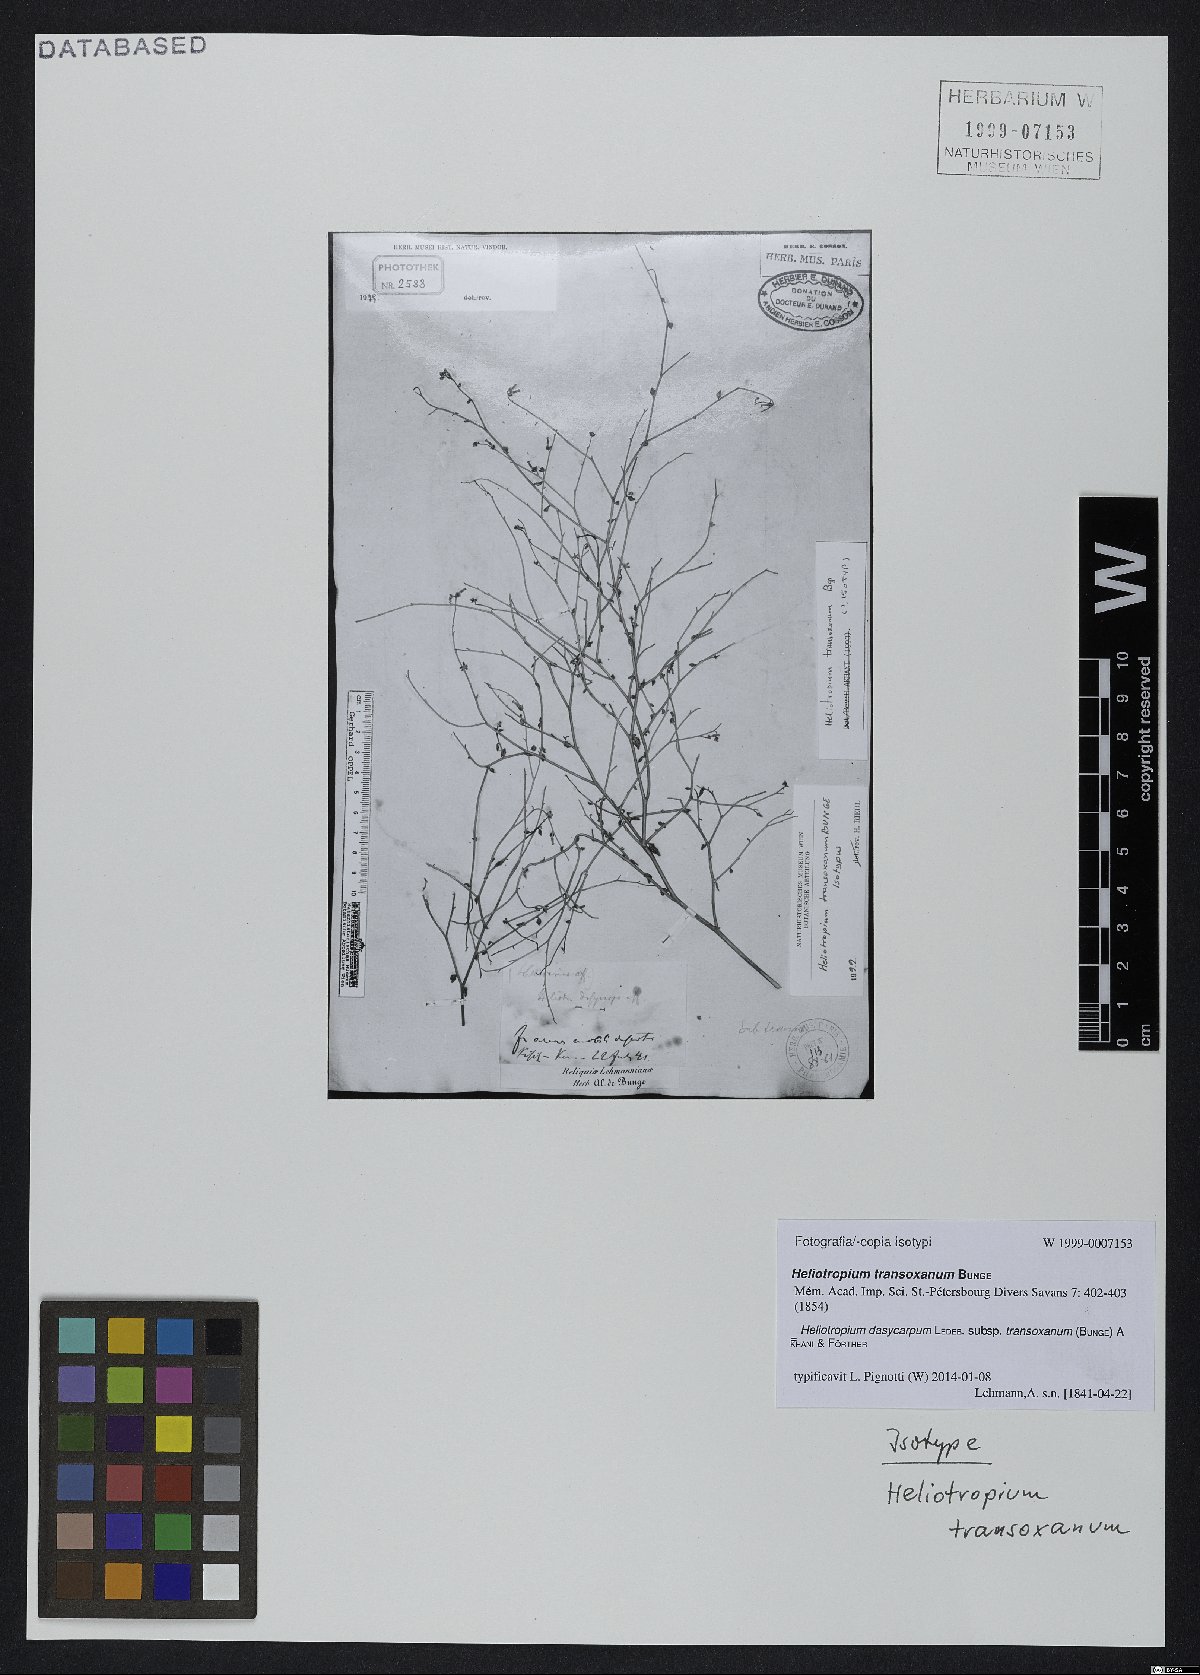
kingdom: Plantae
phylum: Tracheophyta
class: Magnoliopsida
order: Boraginales
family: Heliotropiaceae
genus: Heliotropium
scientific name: Heliotropium dasycarpum
